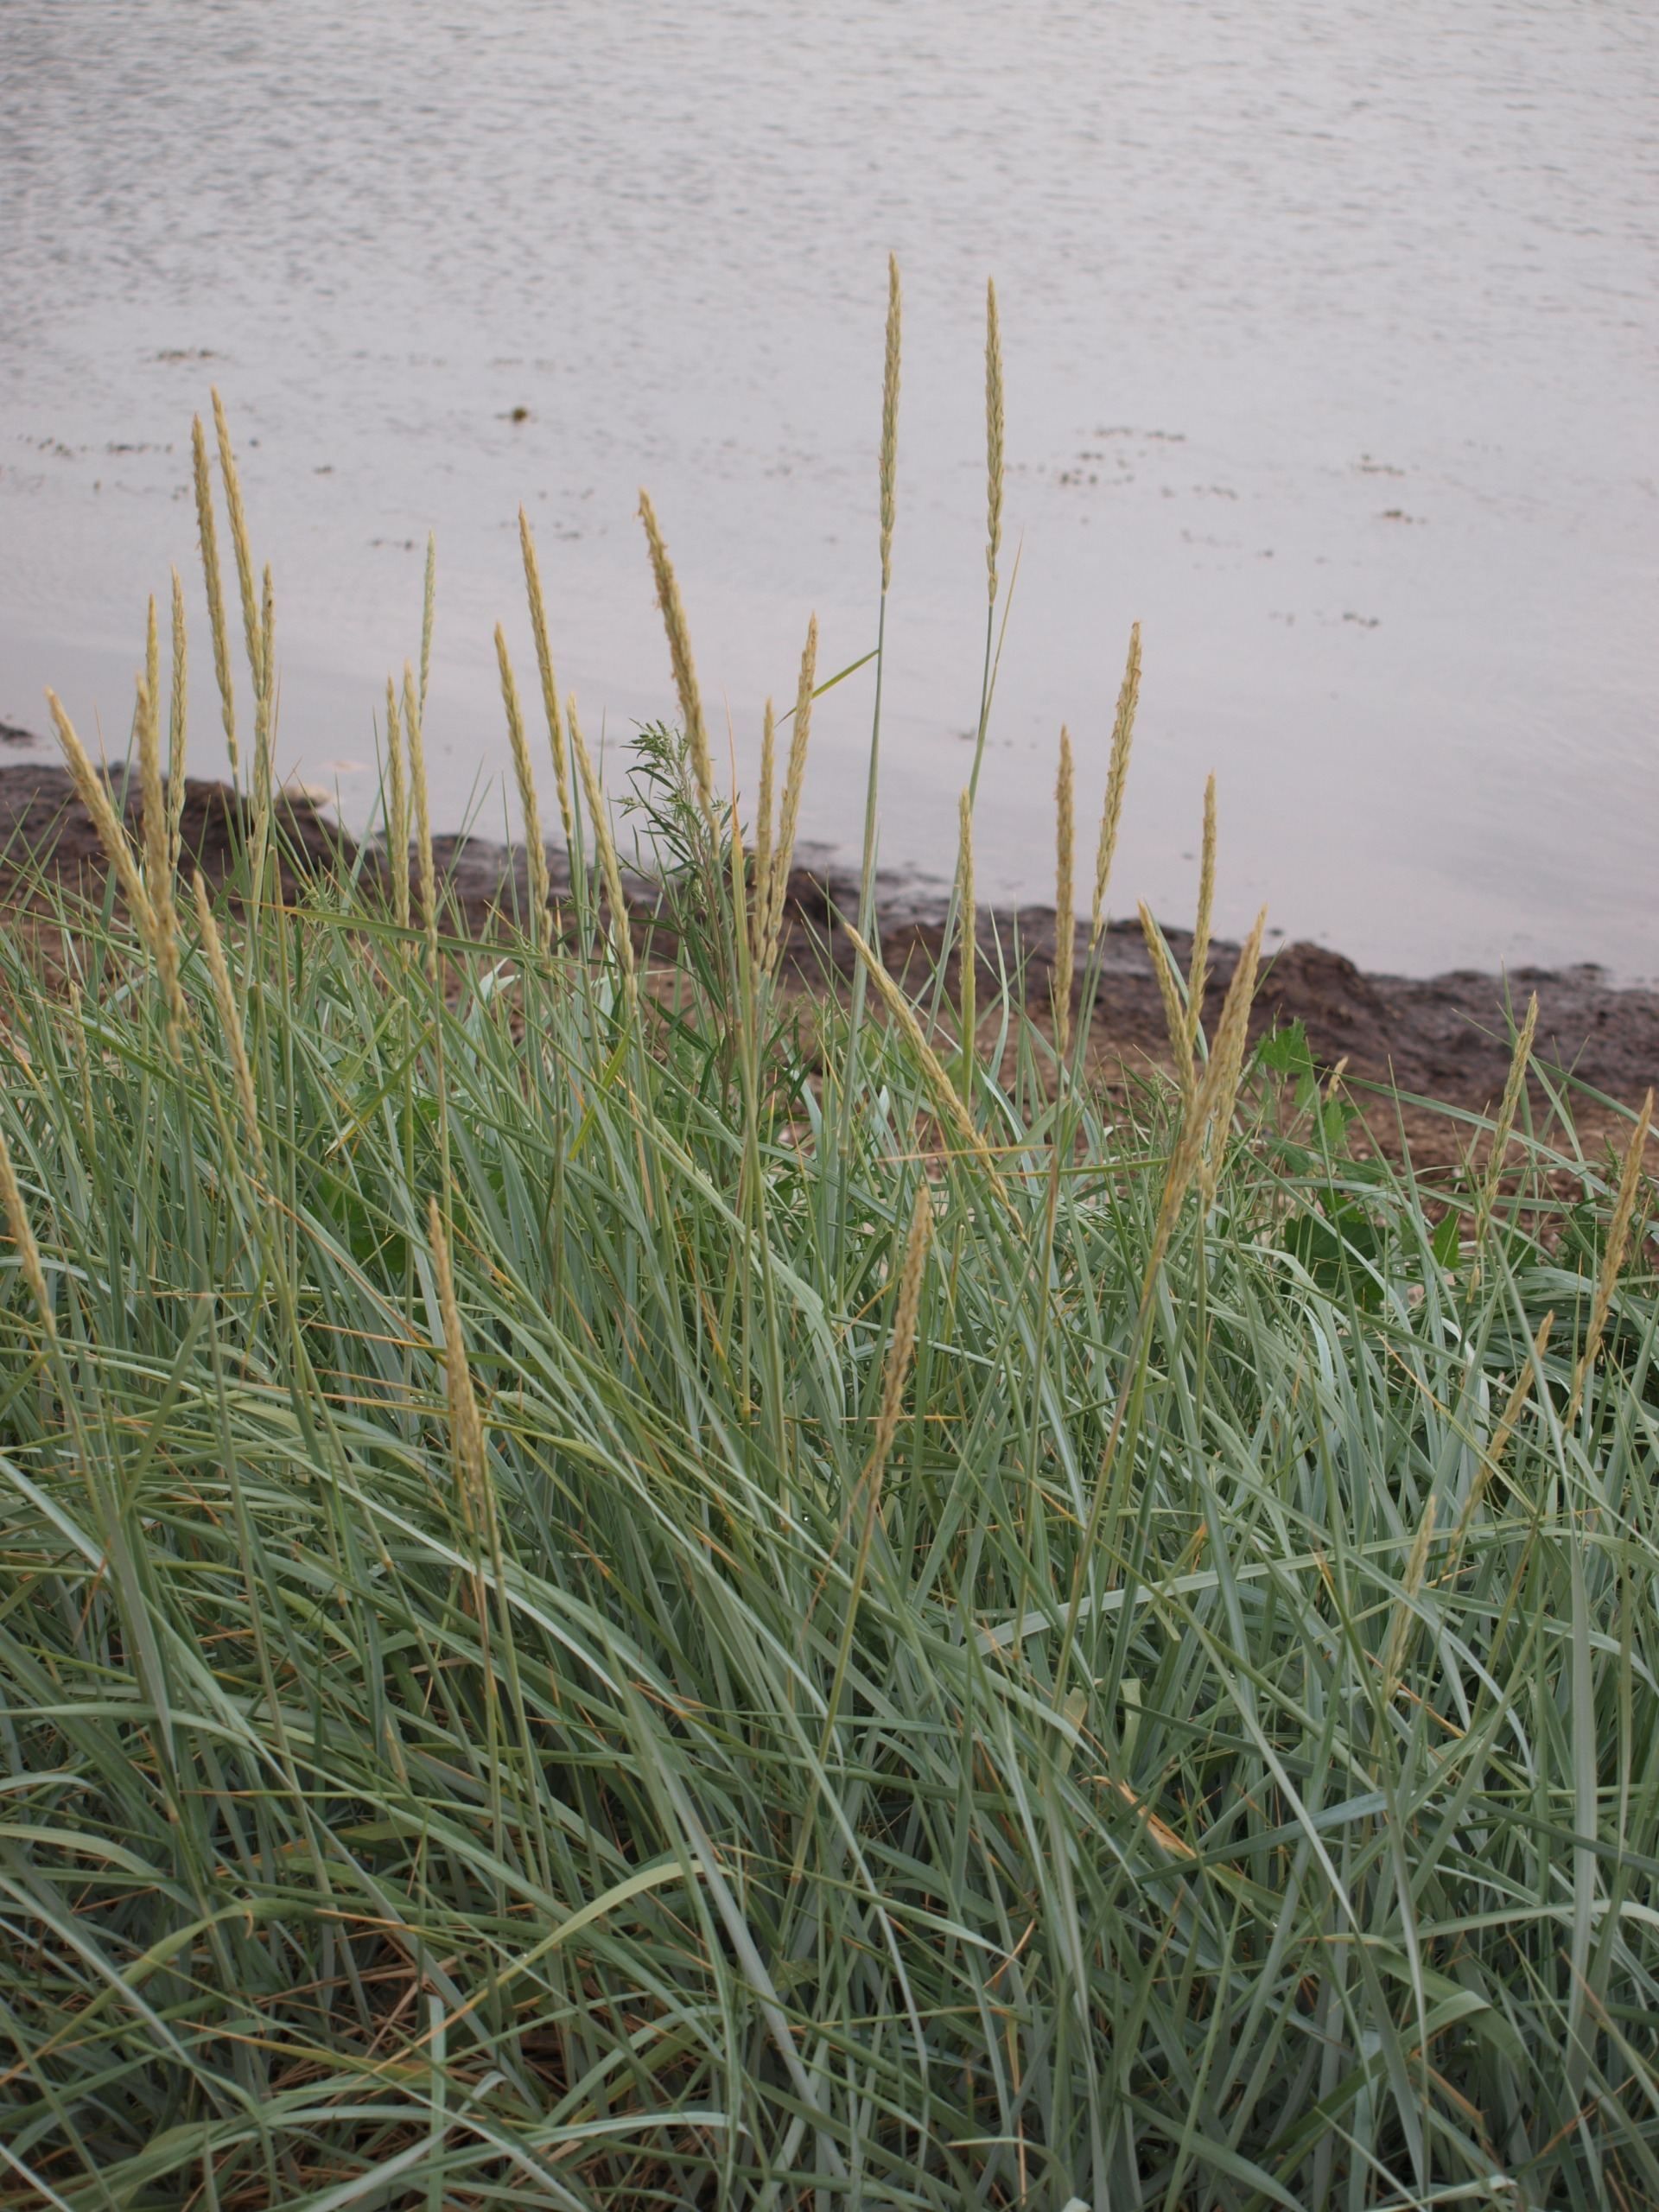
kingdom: Plantae
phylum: Tracheophyta
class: Liliopsida
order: Poales
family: Poaceae
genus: Leymus
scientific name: Leymus arenarius
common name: Marehalm
